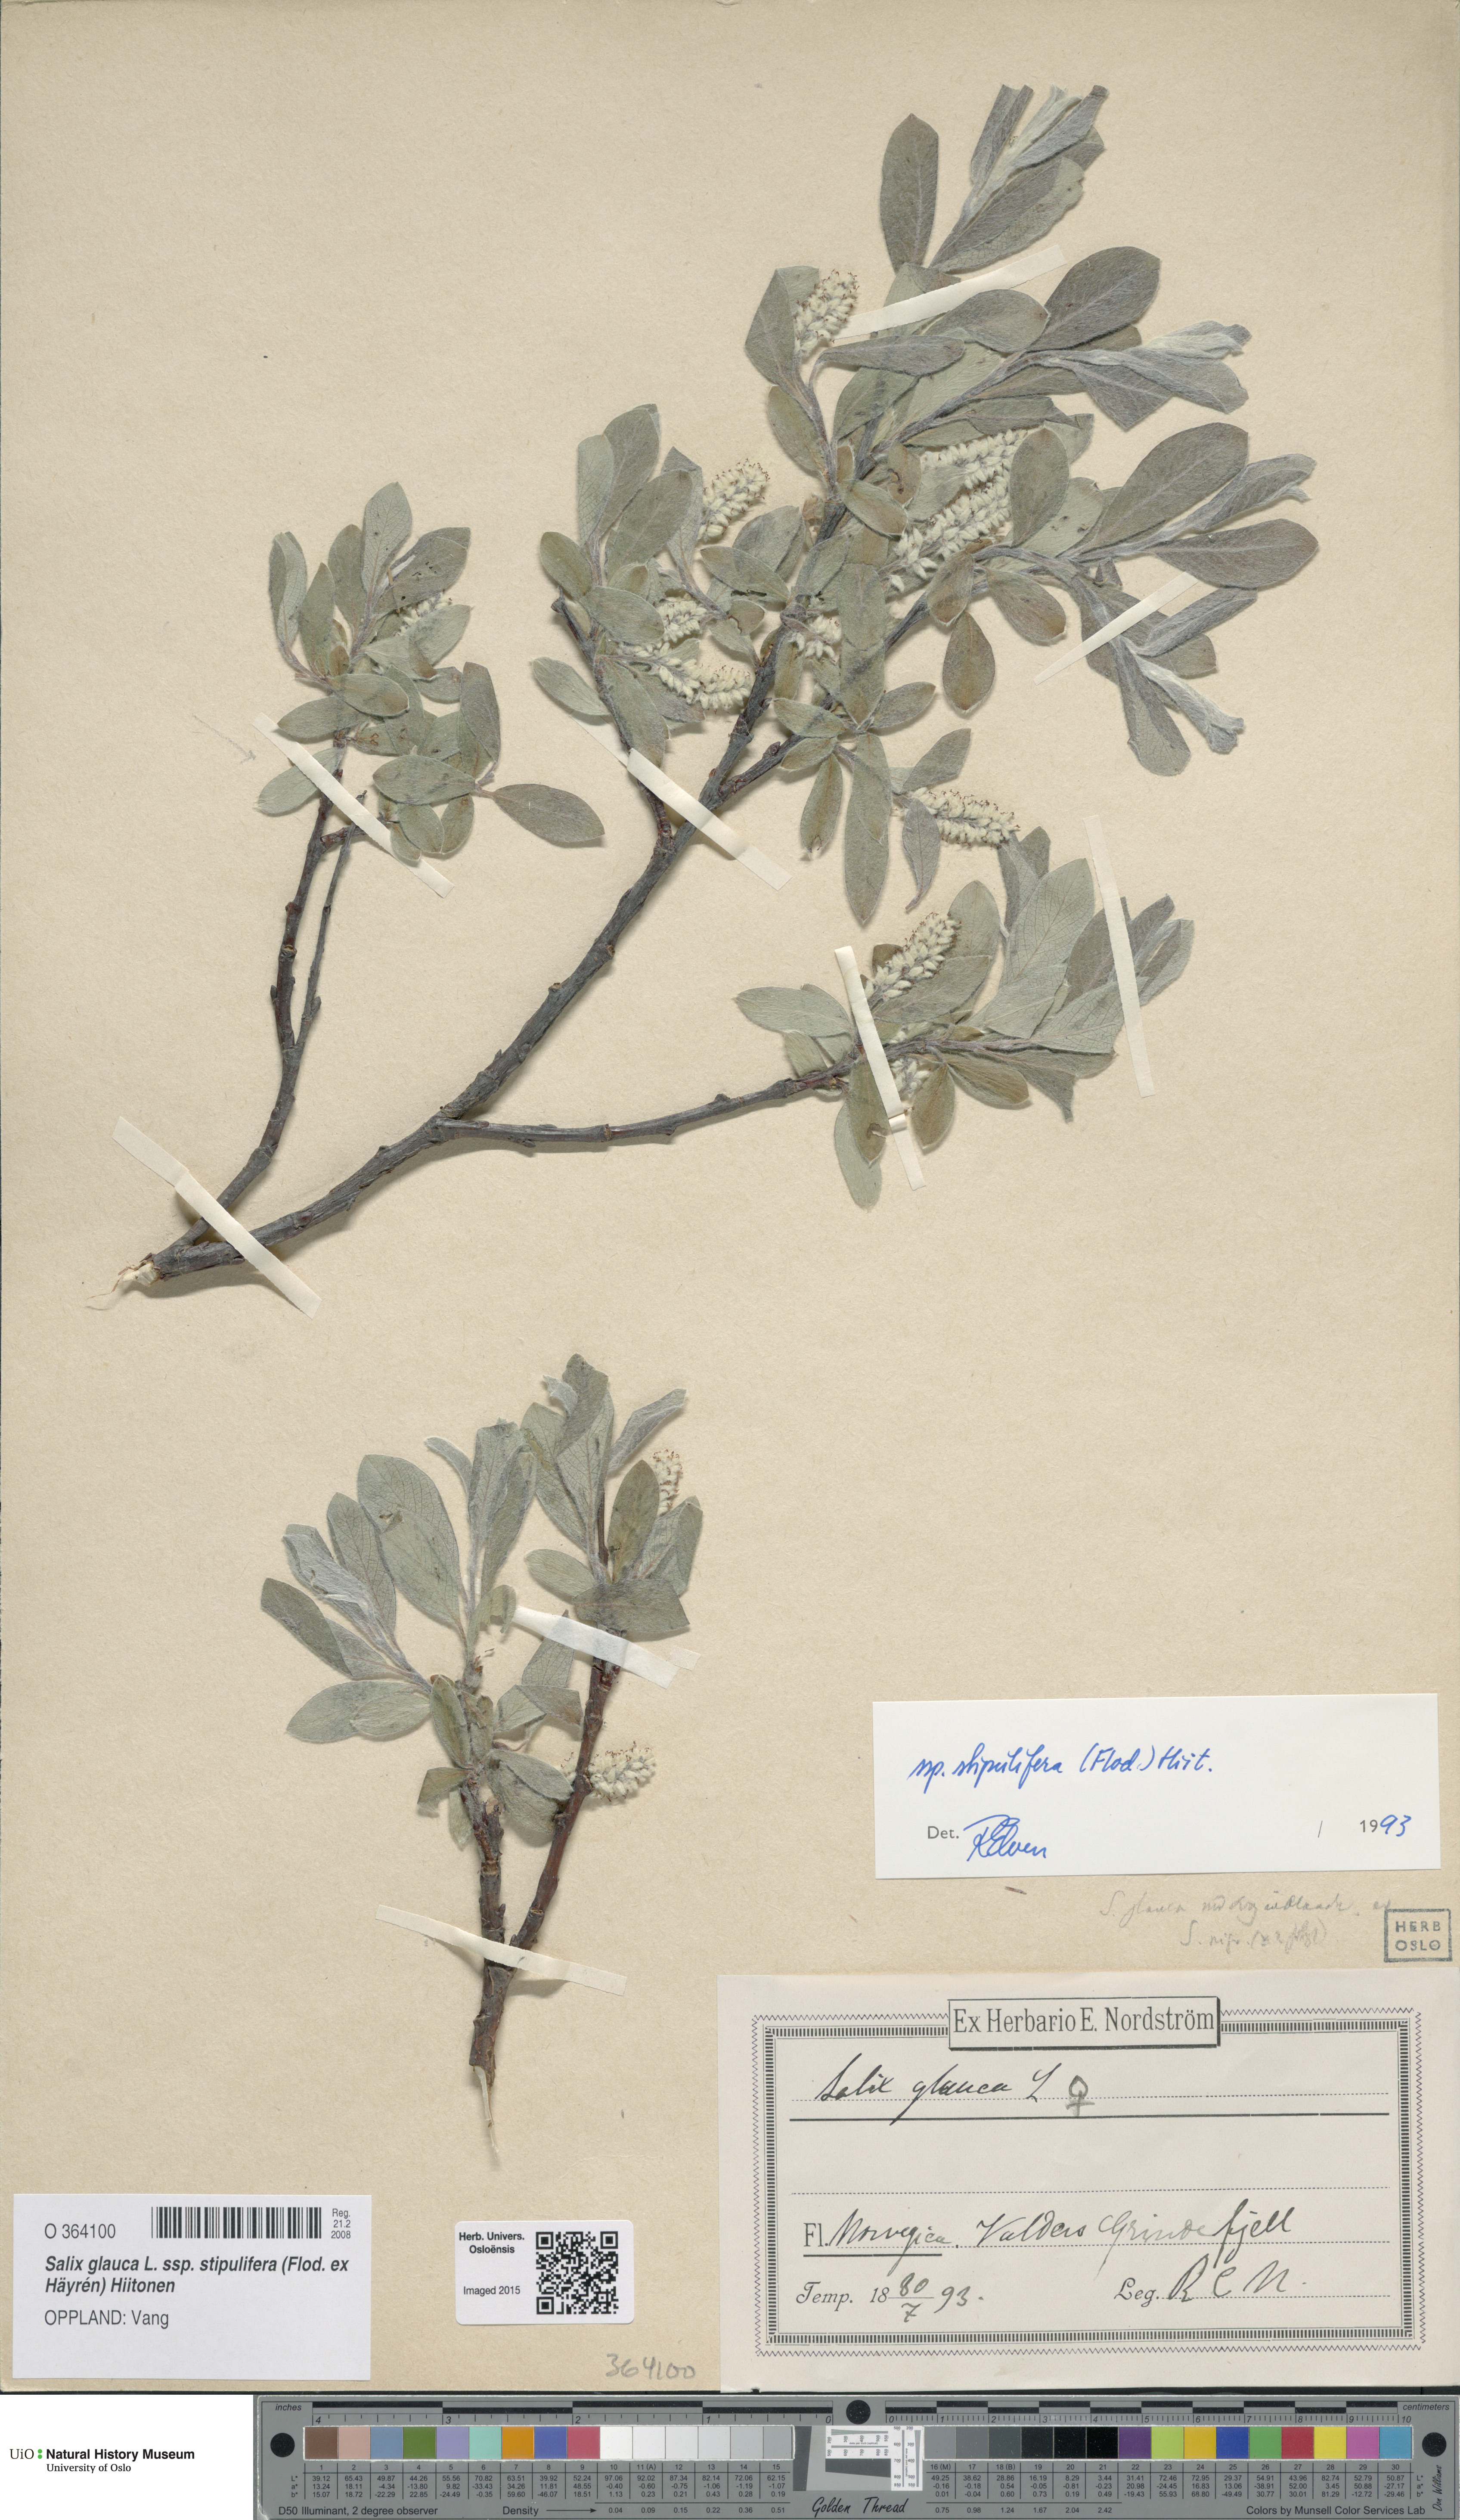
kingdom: Plantae
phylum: Tracheophyta
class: Magnoliopsida
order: Malpighiales
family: Salicaceae
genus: Salix
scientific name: Salix glauca
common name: Glaucous willow
